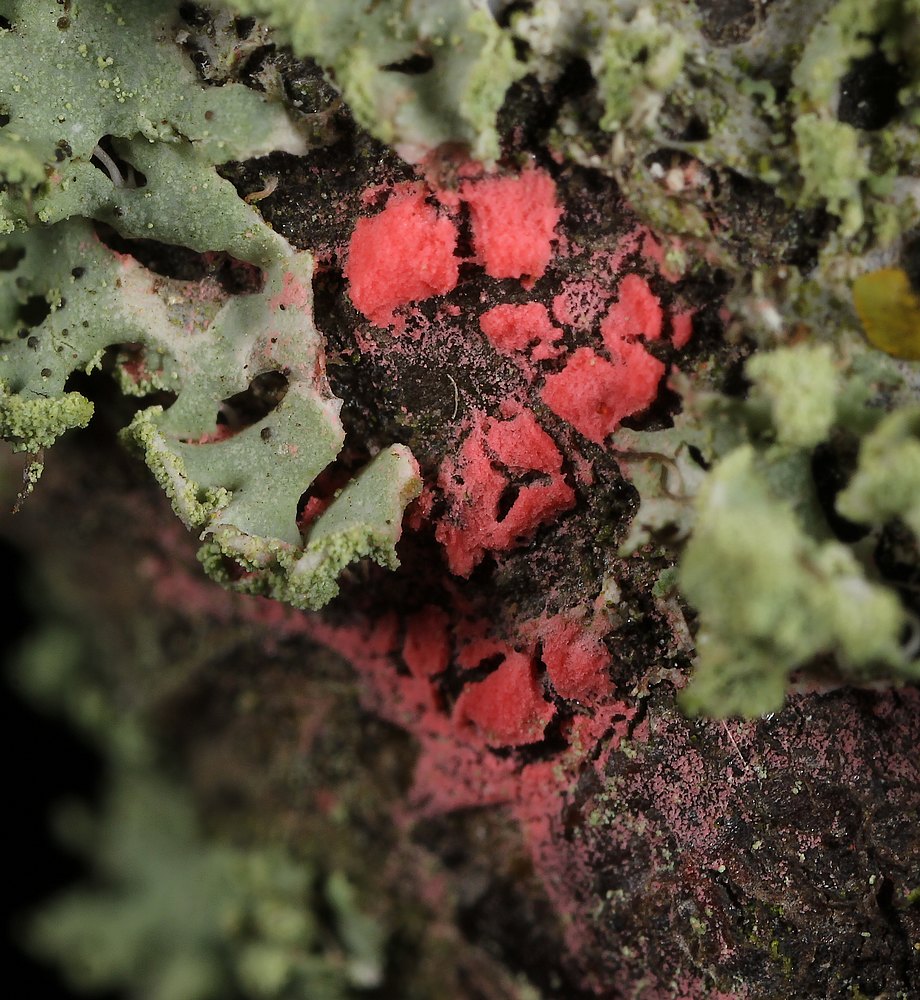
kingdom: Fungi
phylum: Ascomycota
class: Sordariomycetes
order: Hypocreales
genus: Illosporiopsis
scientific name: Illosporiopsis christiansenii
